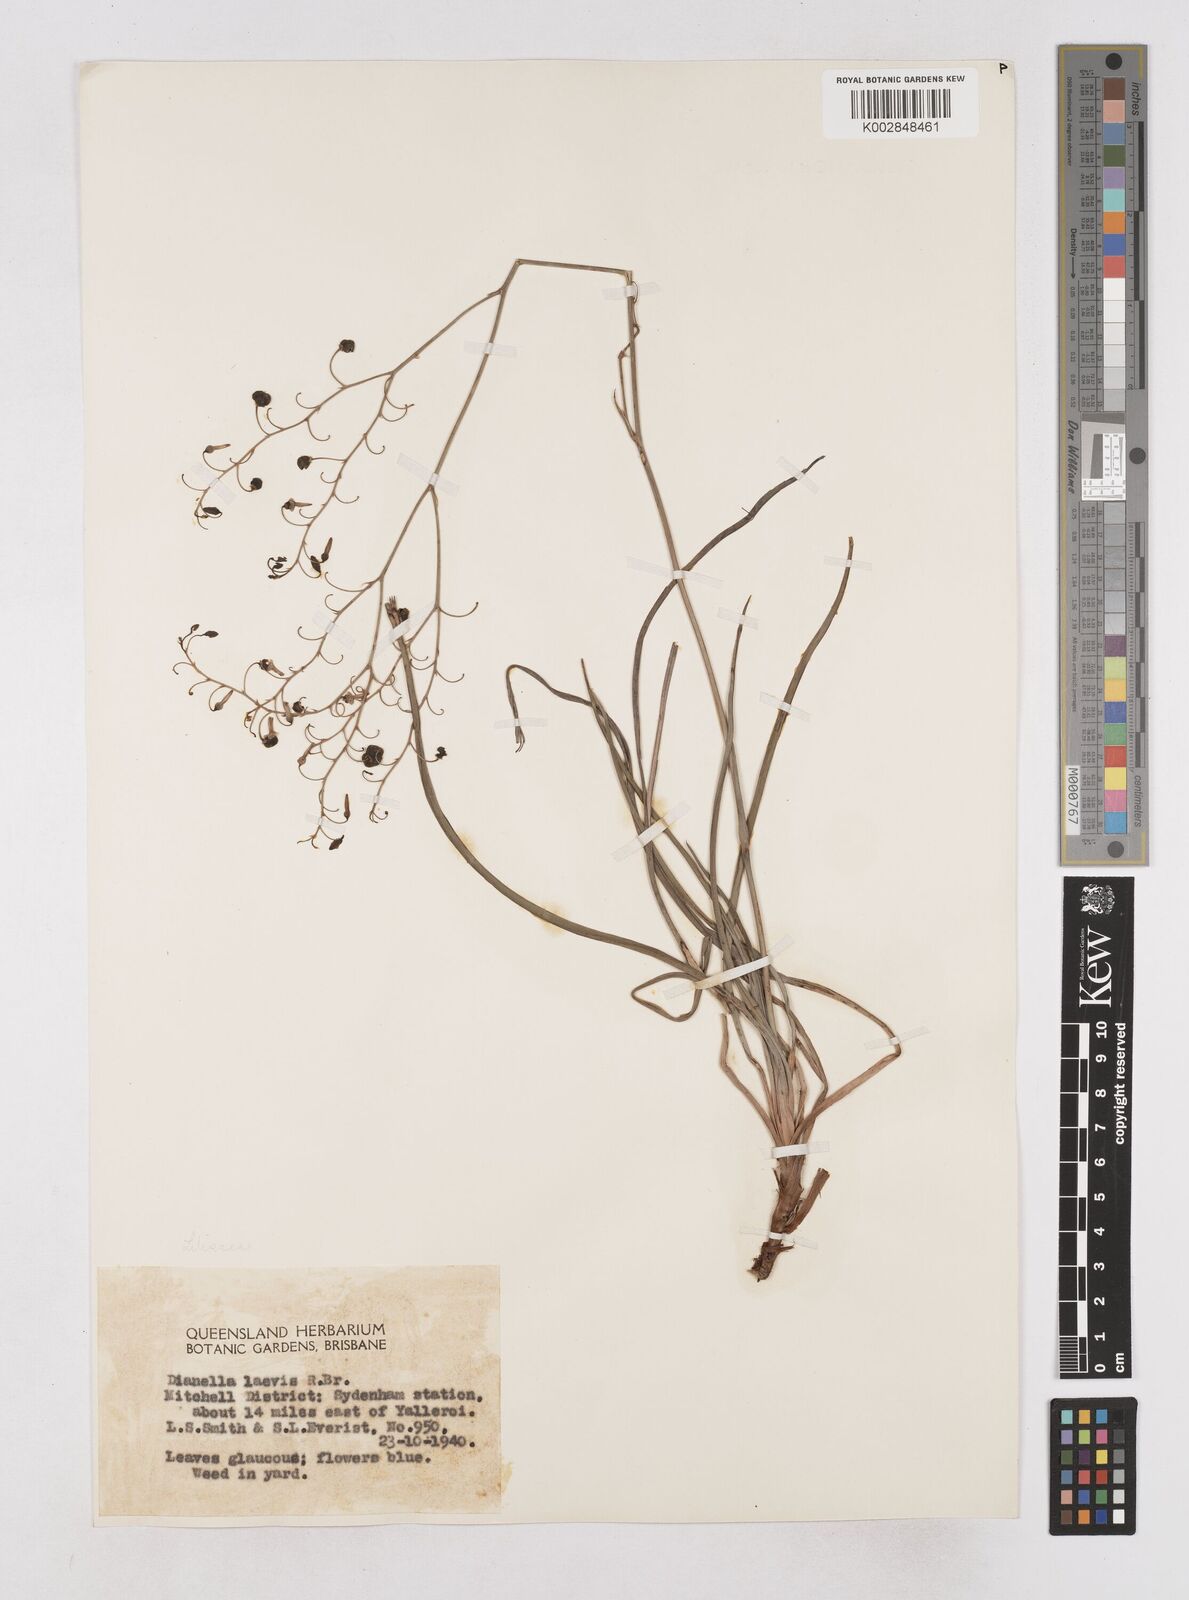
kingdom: Plantae
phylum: Tracheophyta
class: Liliopsida
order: Asparagales
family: Asphodelaceae
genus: Dianella
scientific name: Dianella longifolia
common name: Blue flax-lily
